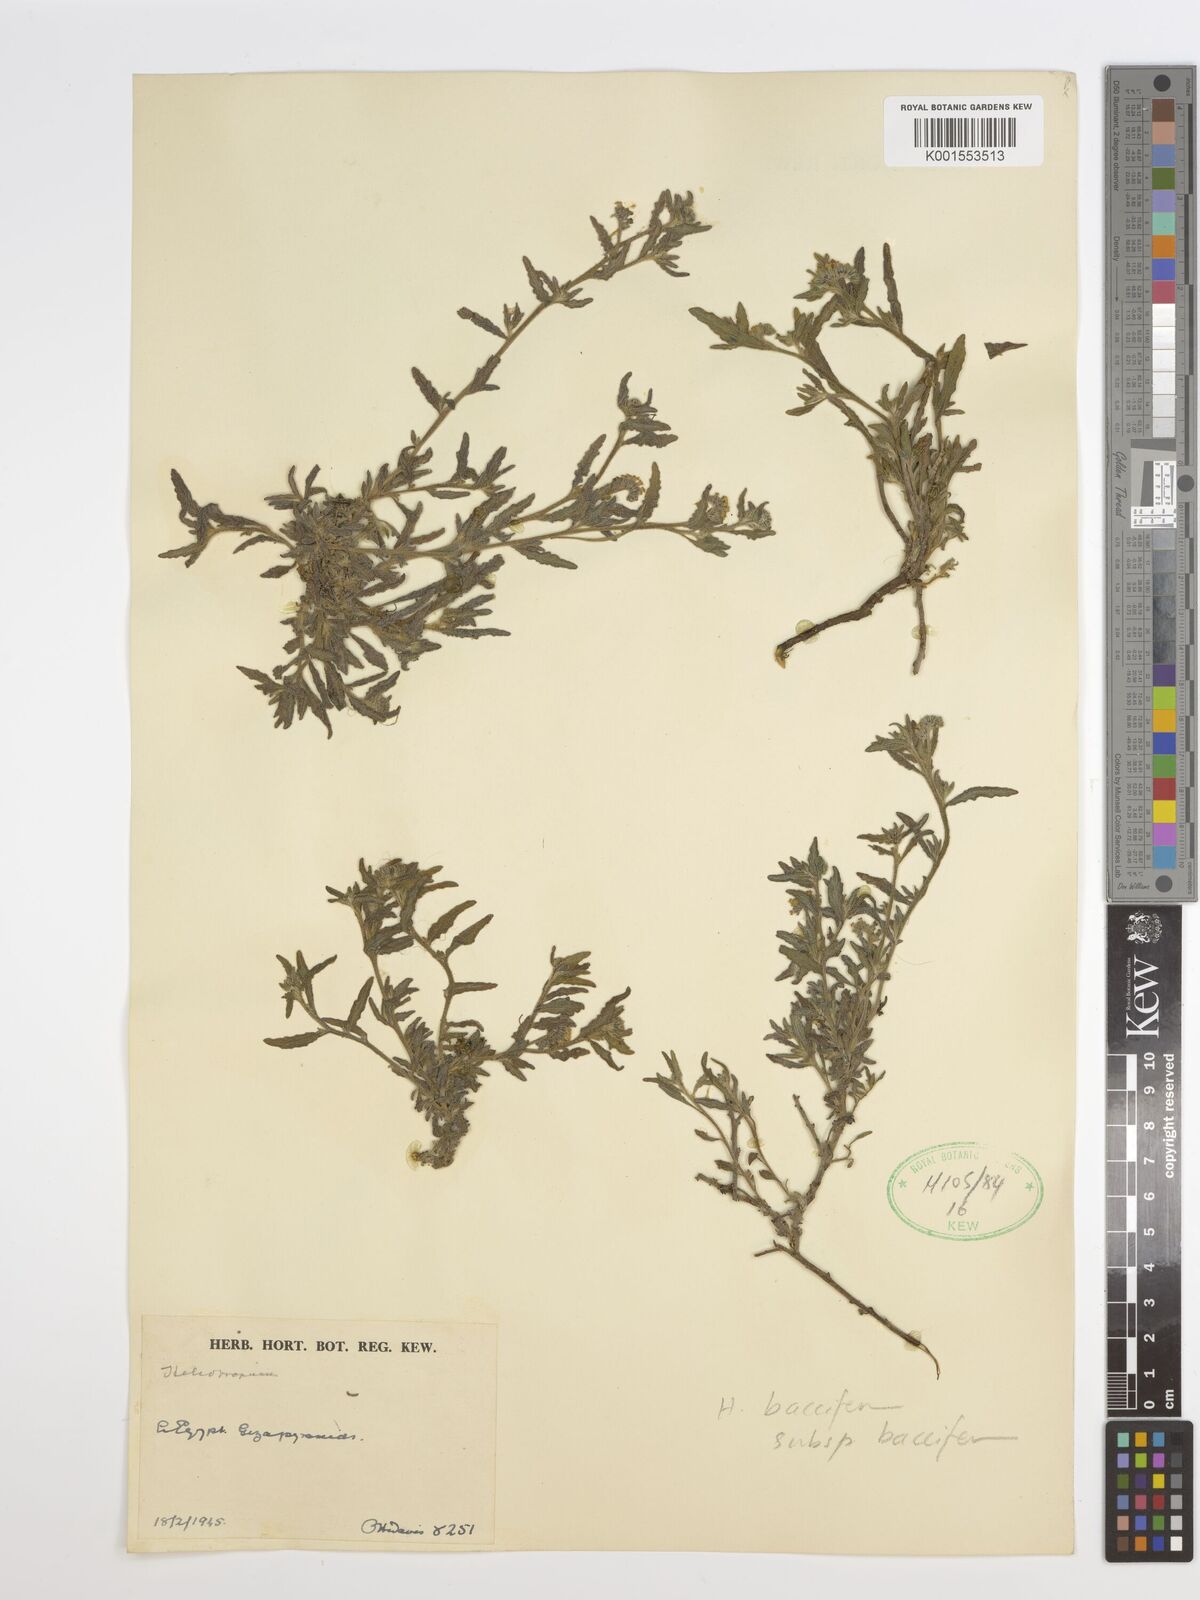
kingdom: Plantae
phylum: Tracheophyta
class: Magnoliopsida
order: Boraginales
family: Heliotropiaceae
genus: Heliotropium
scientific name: Heliotropium
